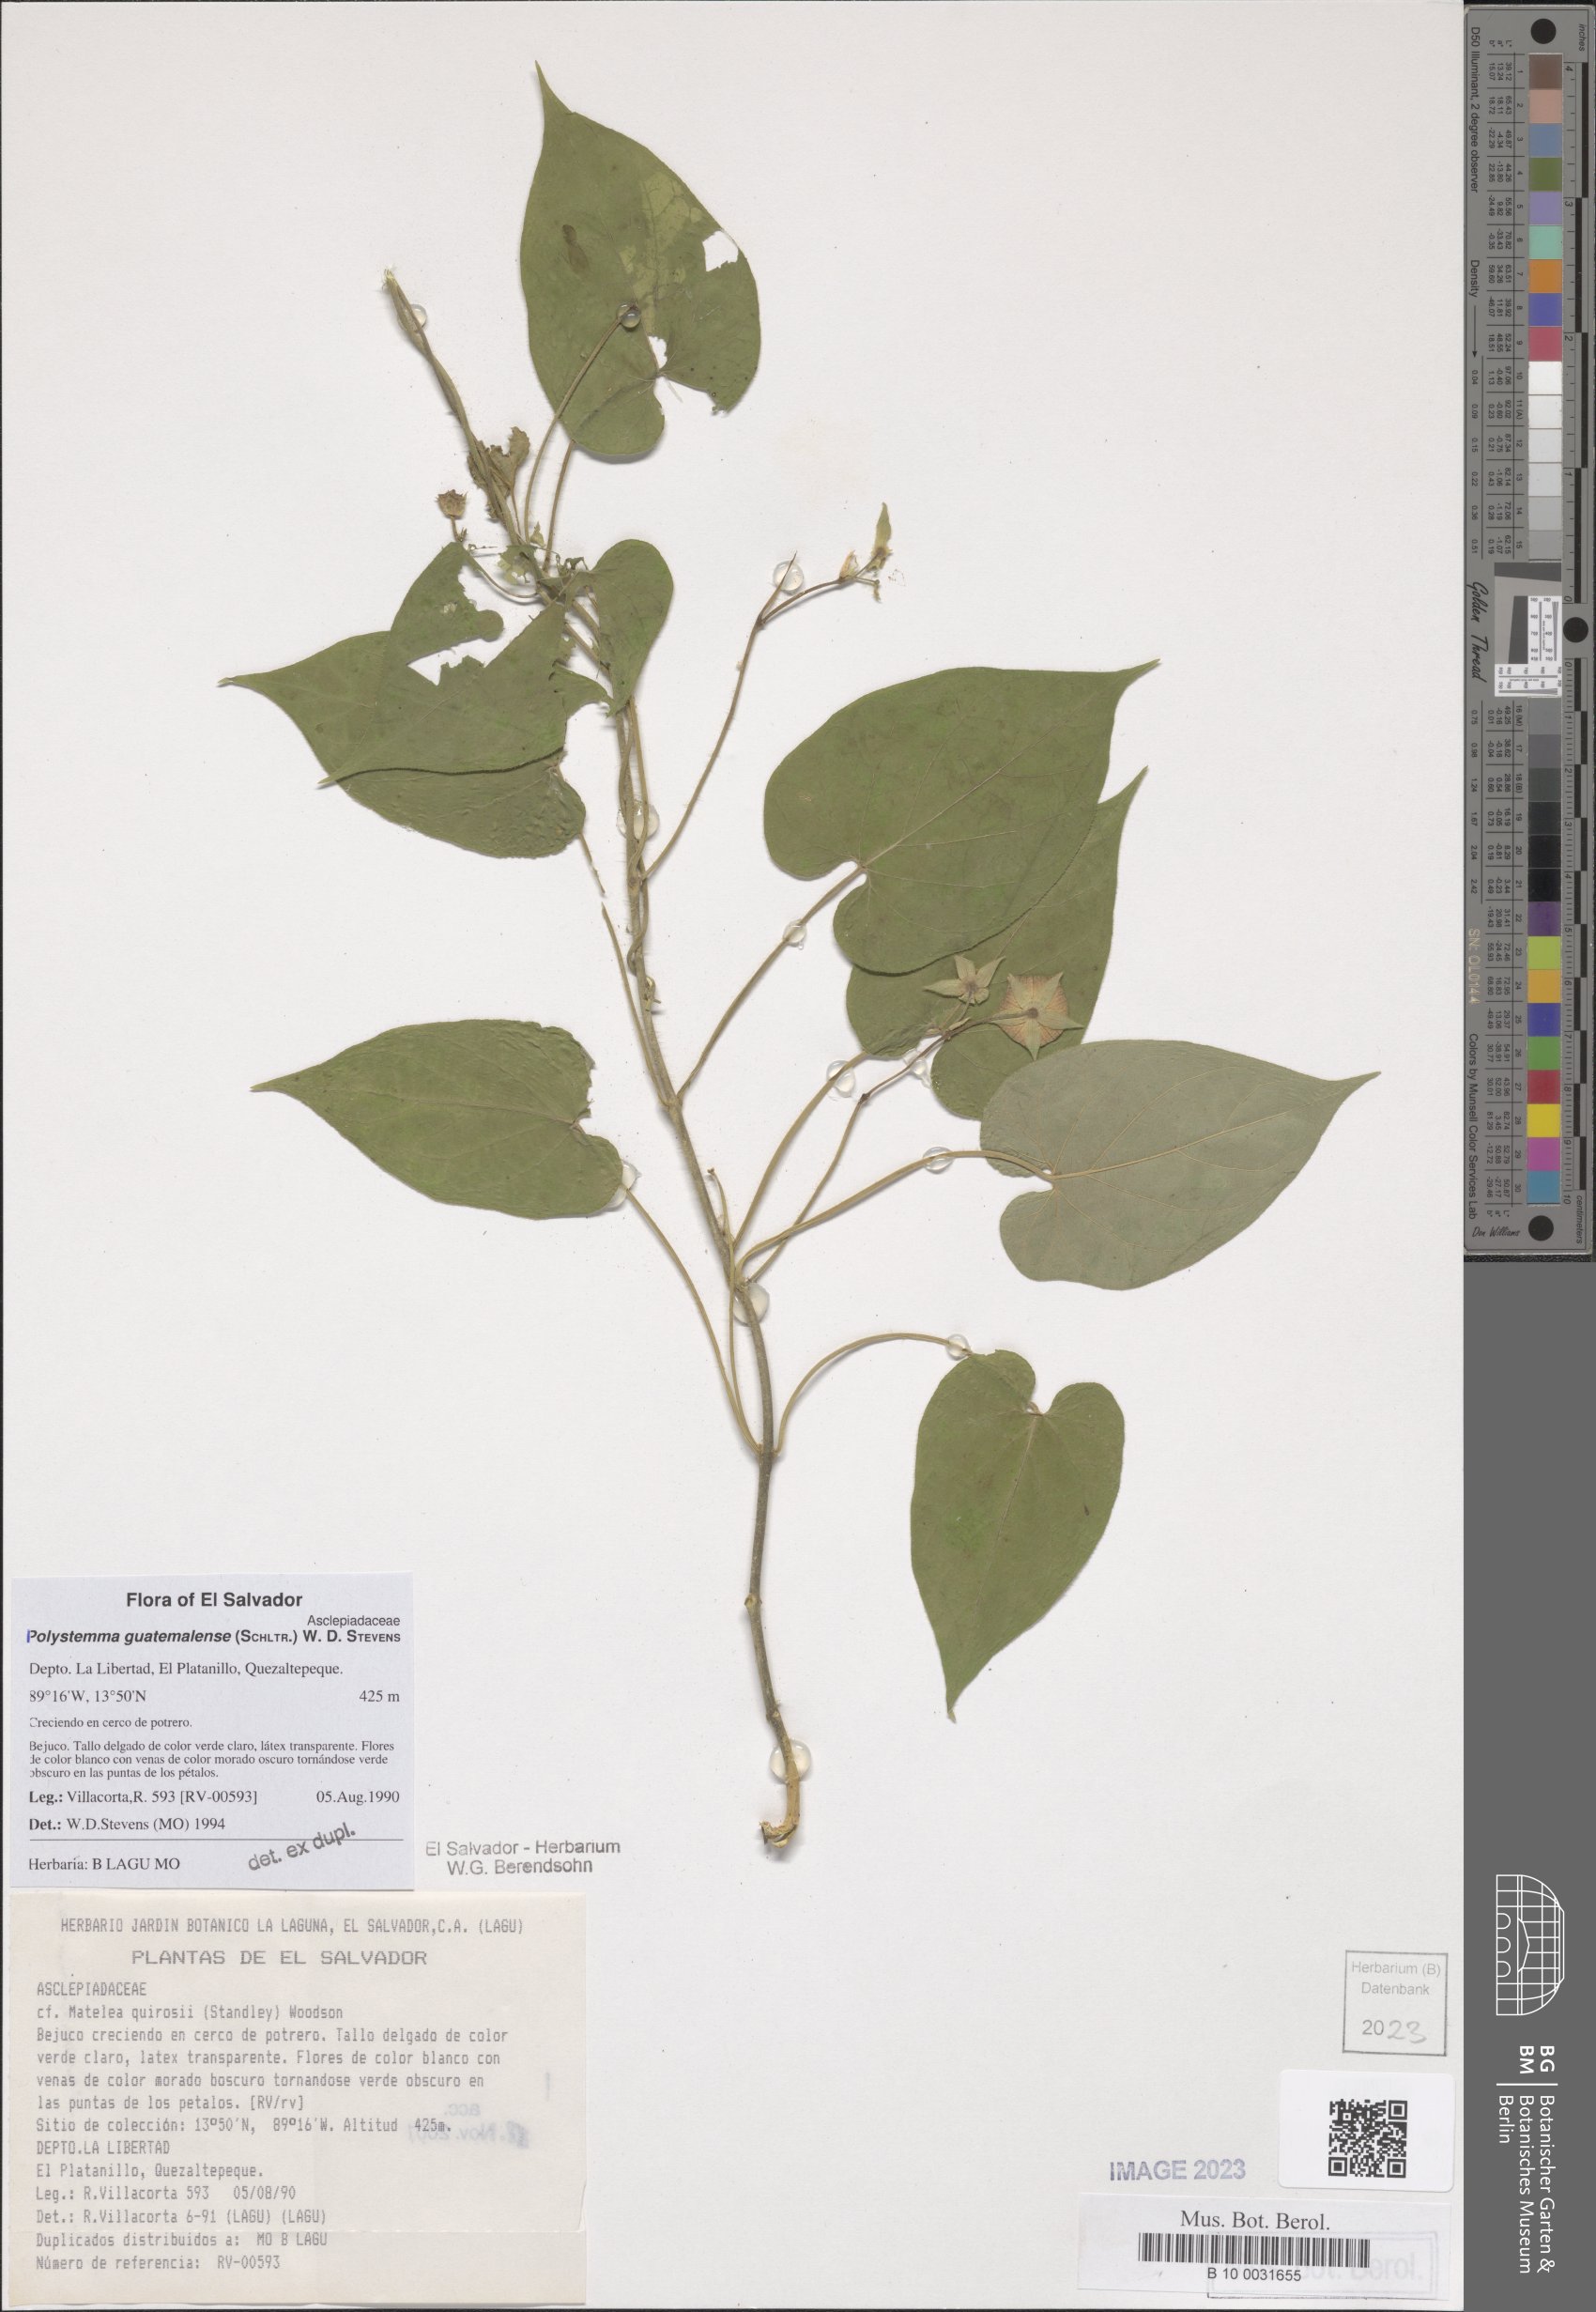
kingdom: Plantae
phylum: Tracheophyta
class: Magnoliopsida
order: Gentianales
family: Apocynaceae
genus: Polystemma
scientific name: Polystemma guatemalense
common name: Arborescente rattan
